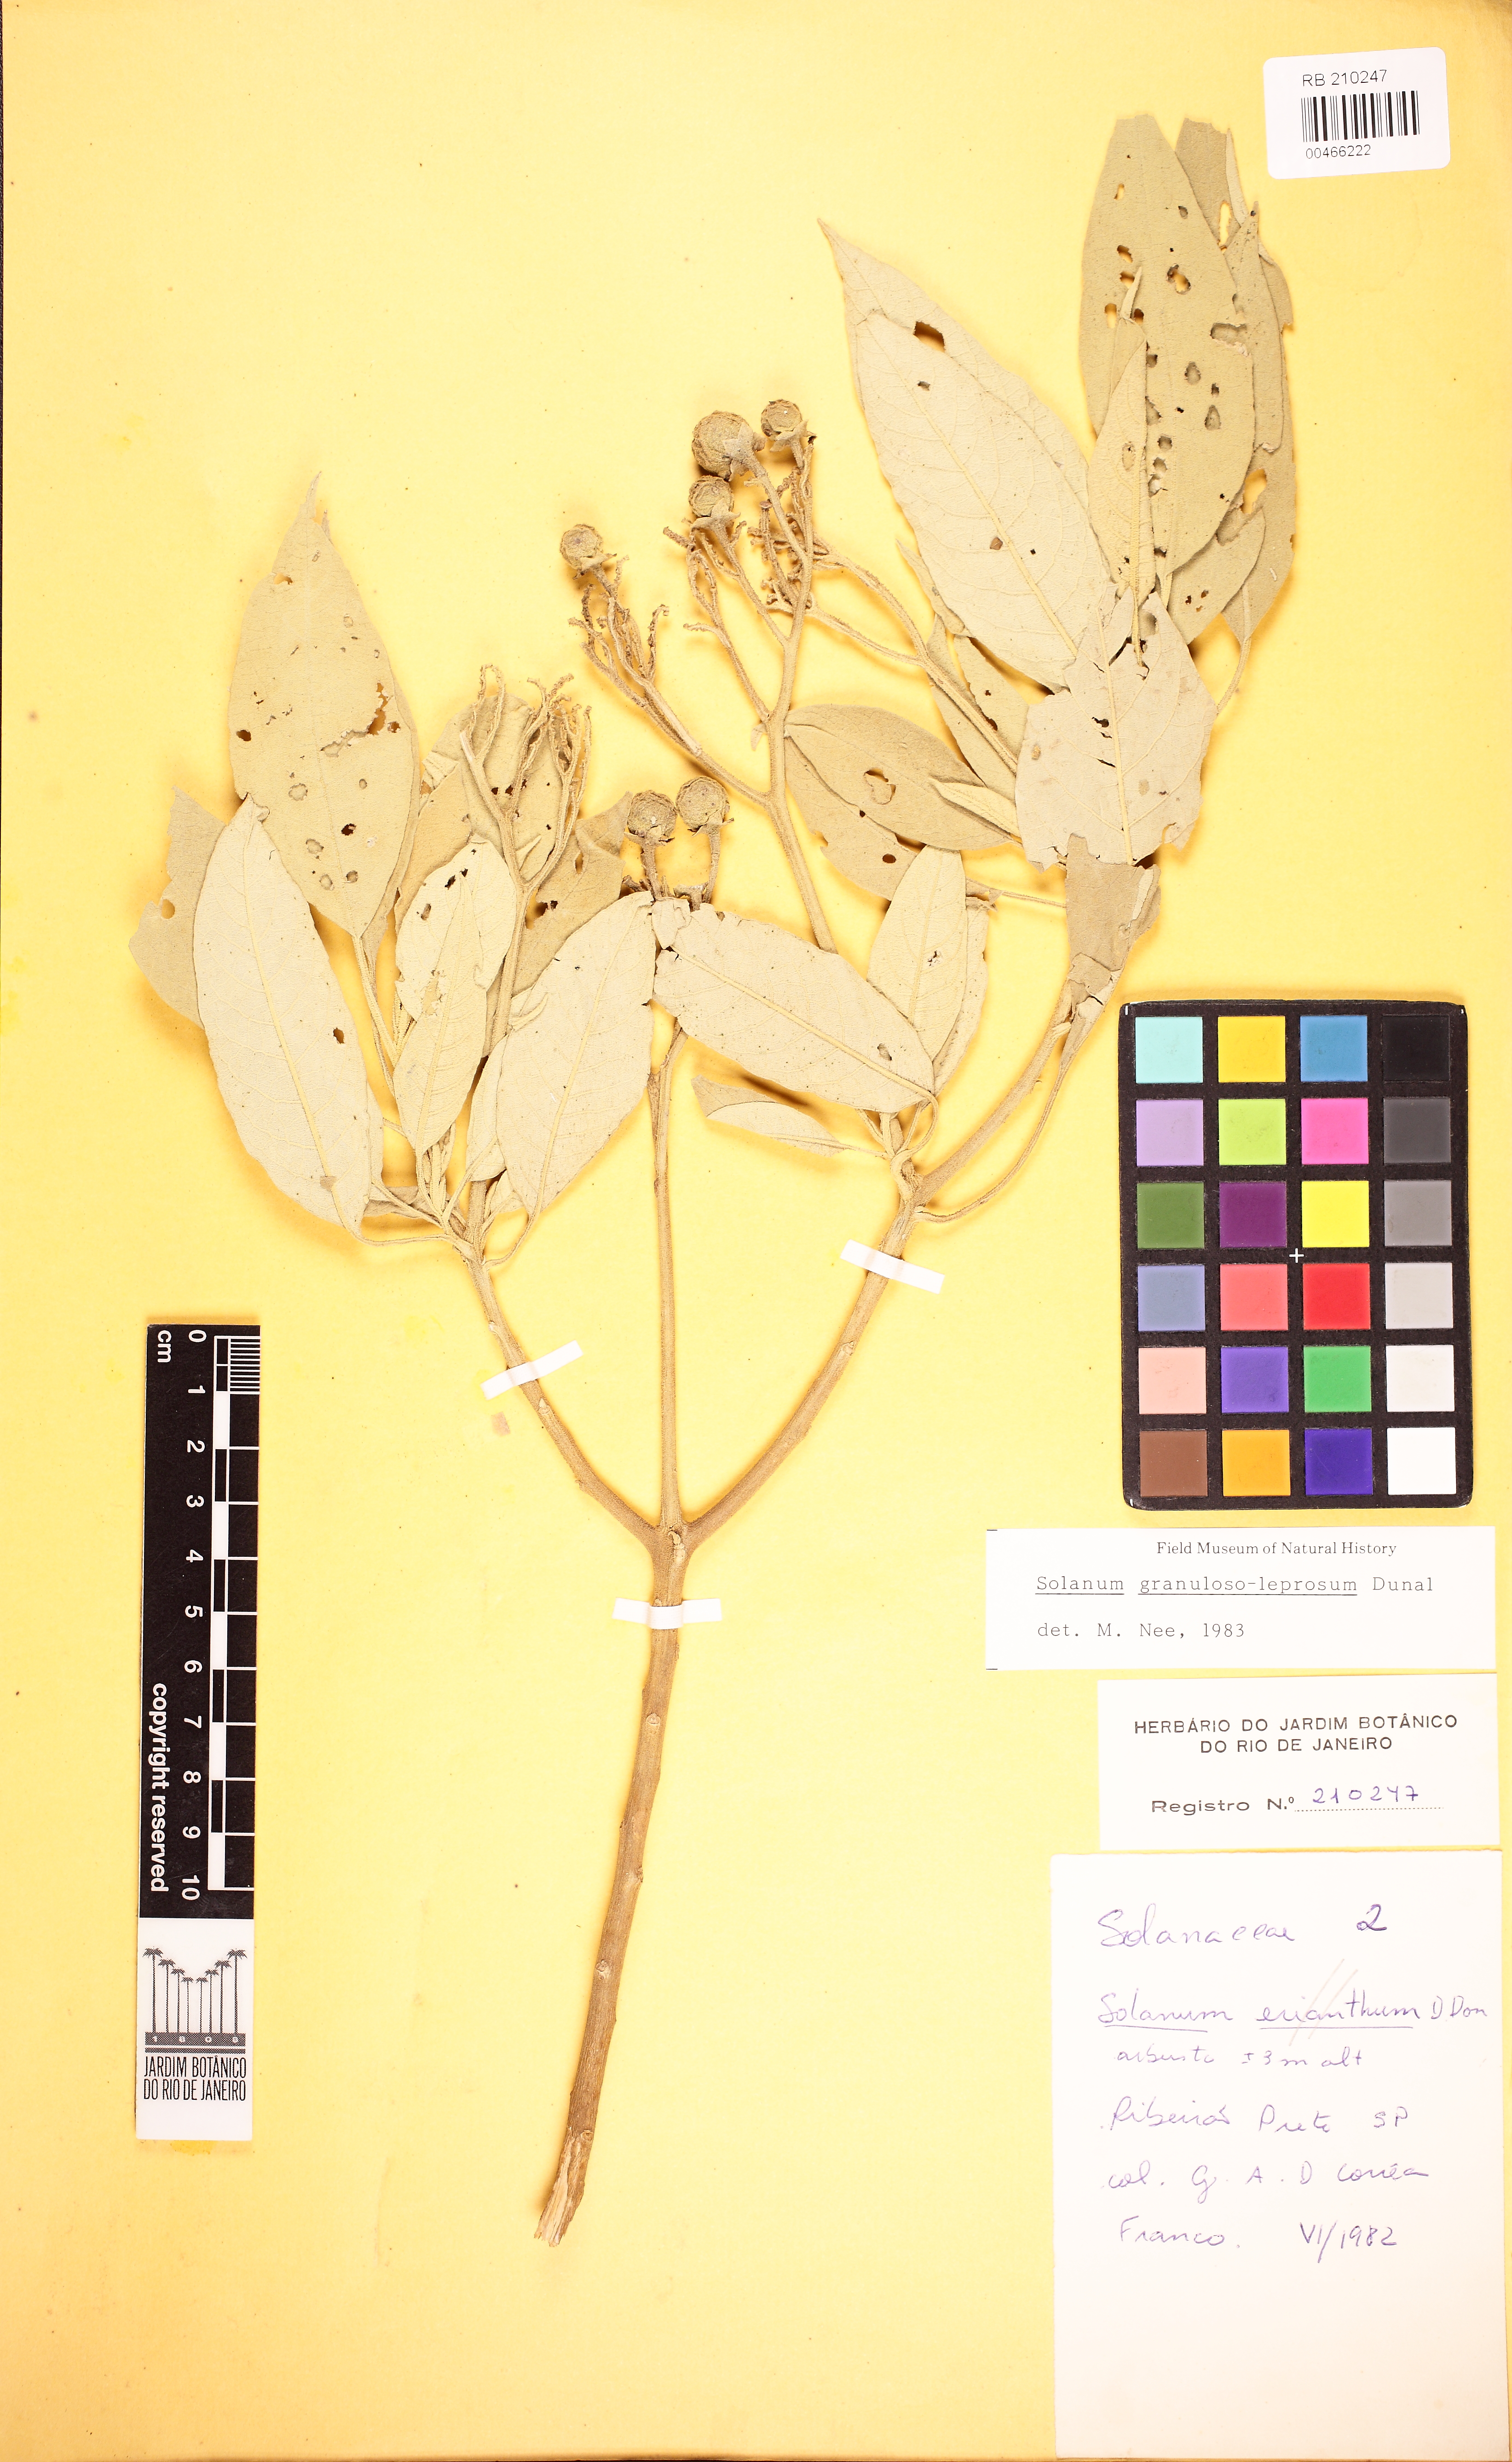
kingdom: Plantae
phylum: Tracheophyta
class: Magnoliopsida
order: Solanales
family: Solanaceae
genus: Solanum
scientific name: Solanum granulosoleprosum
